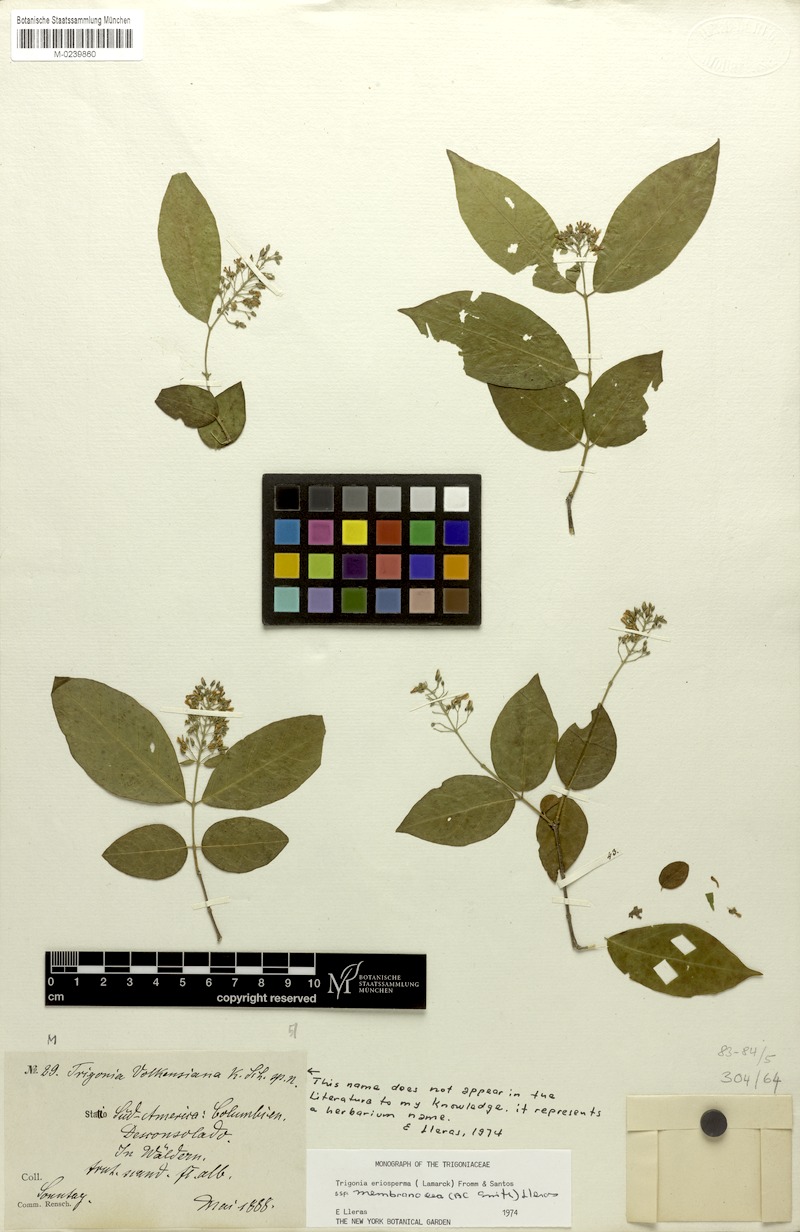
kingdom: Plantae
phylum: Tracheophyta
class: Magnoliopsida
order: Malpighiales
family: Trigoniaceae
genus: Trigonia
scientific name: Trigonia eriosperma
